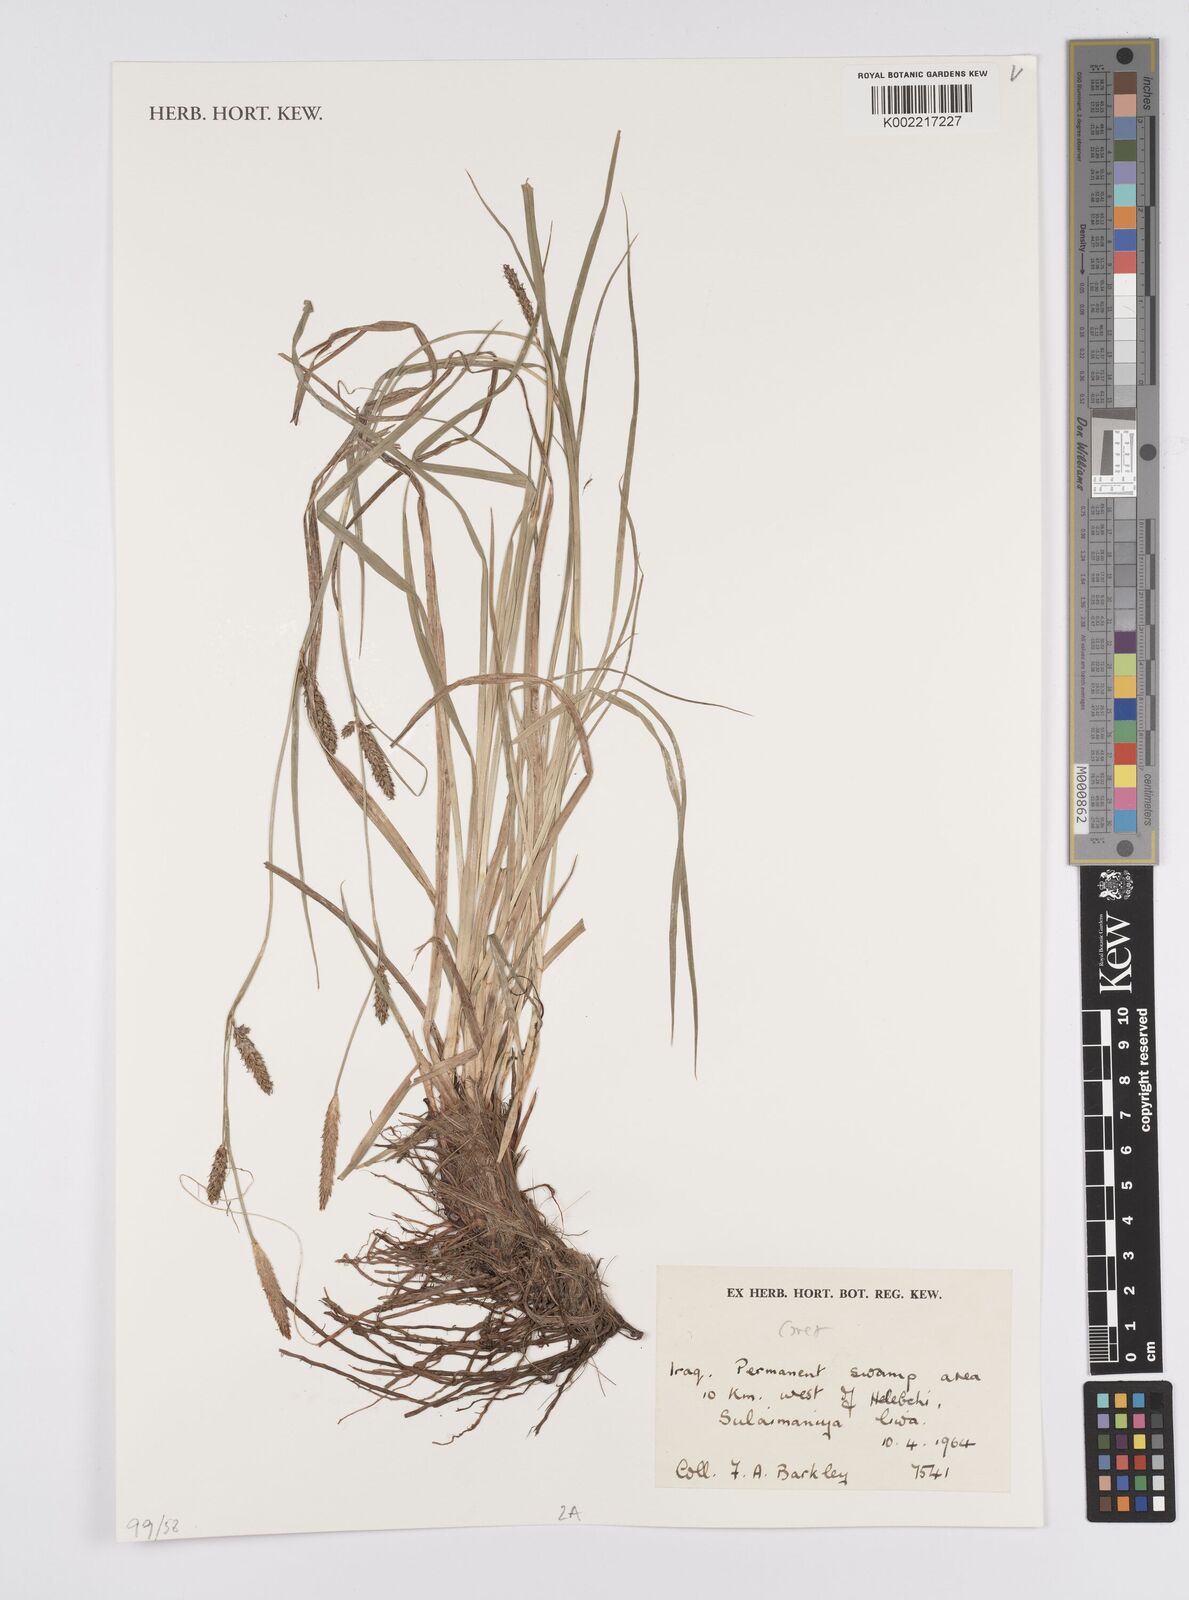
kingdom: Plantae
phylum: Tracheophyta
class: Liliopsida
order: Poales
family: Cyperaceae
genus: Carex
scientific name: Carex
